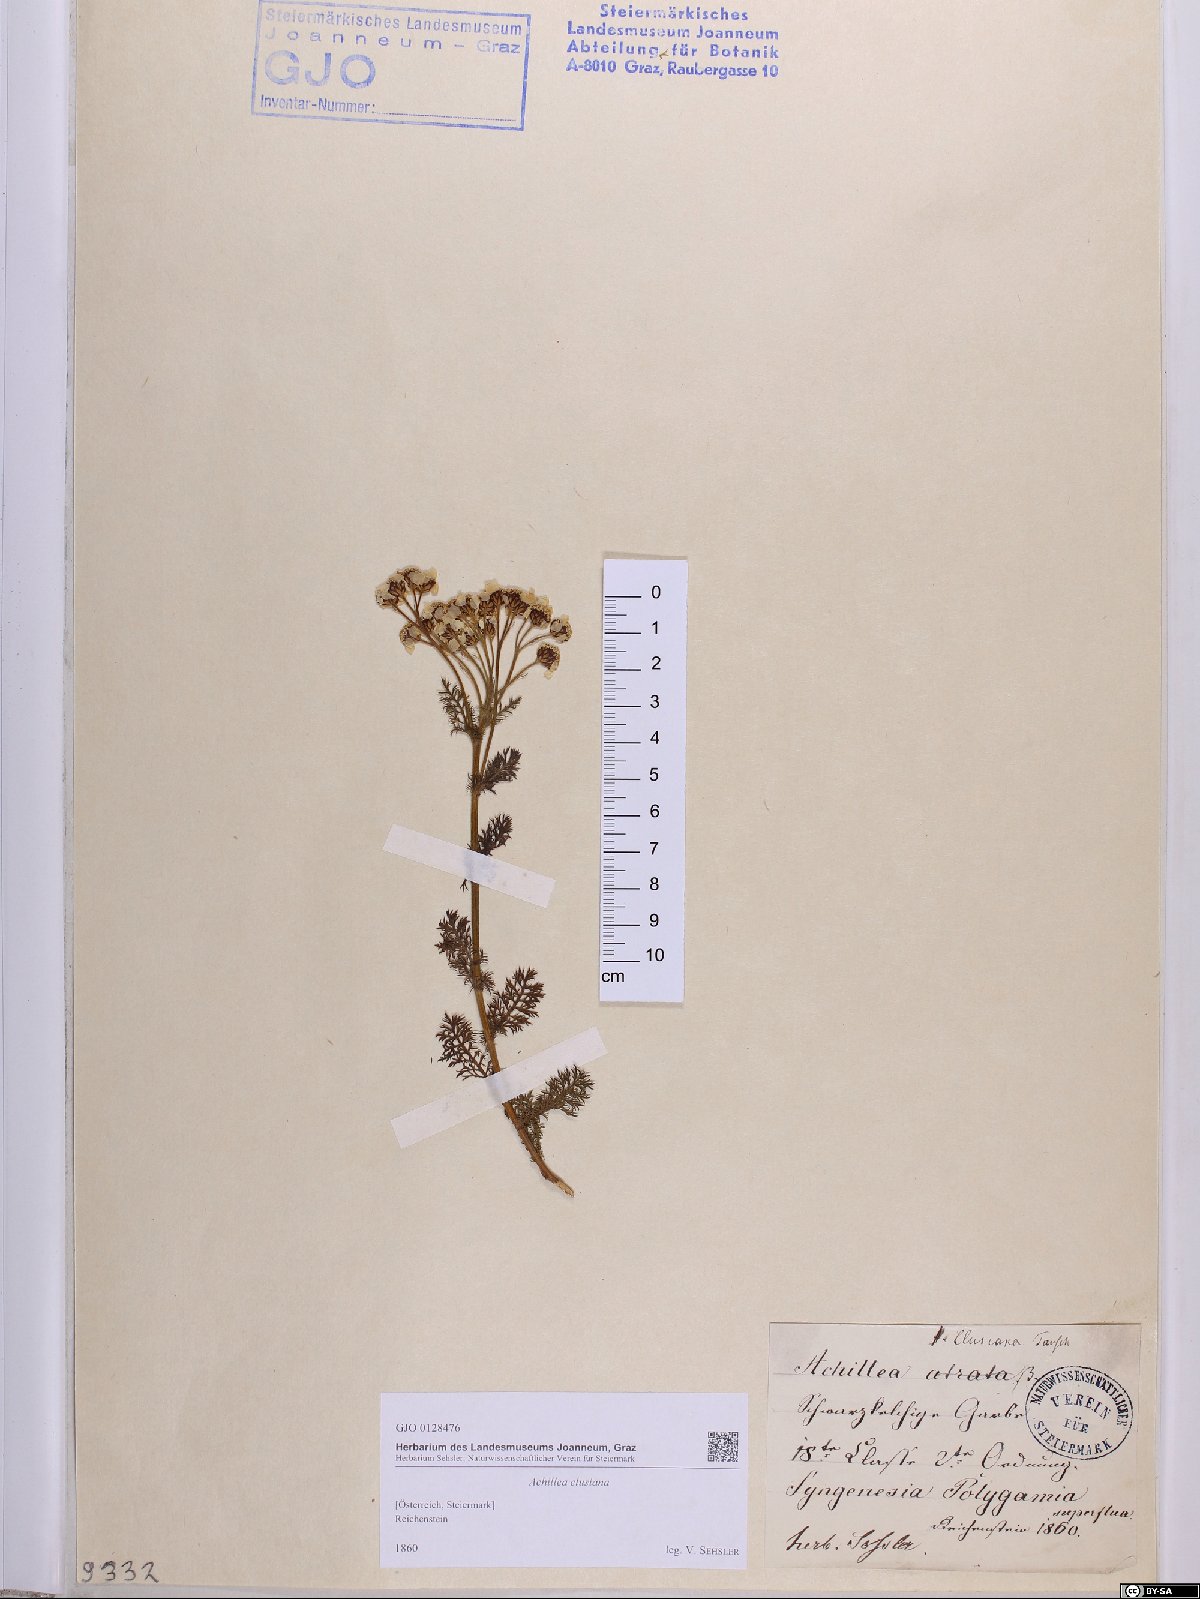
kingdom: Plantae
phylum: Tracheophyta
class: Magnoliopsida
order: Asterales
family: Asteraceae
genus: Achillea
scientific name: Achillea clusiana
